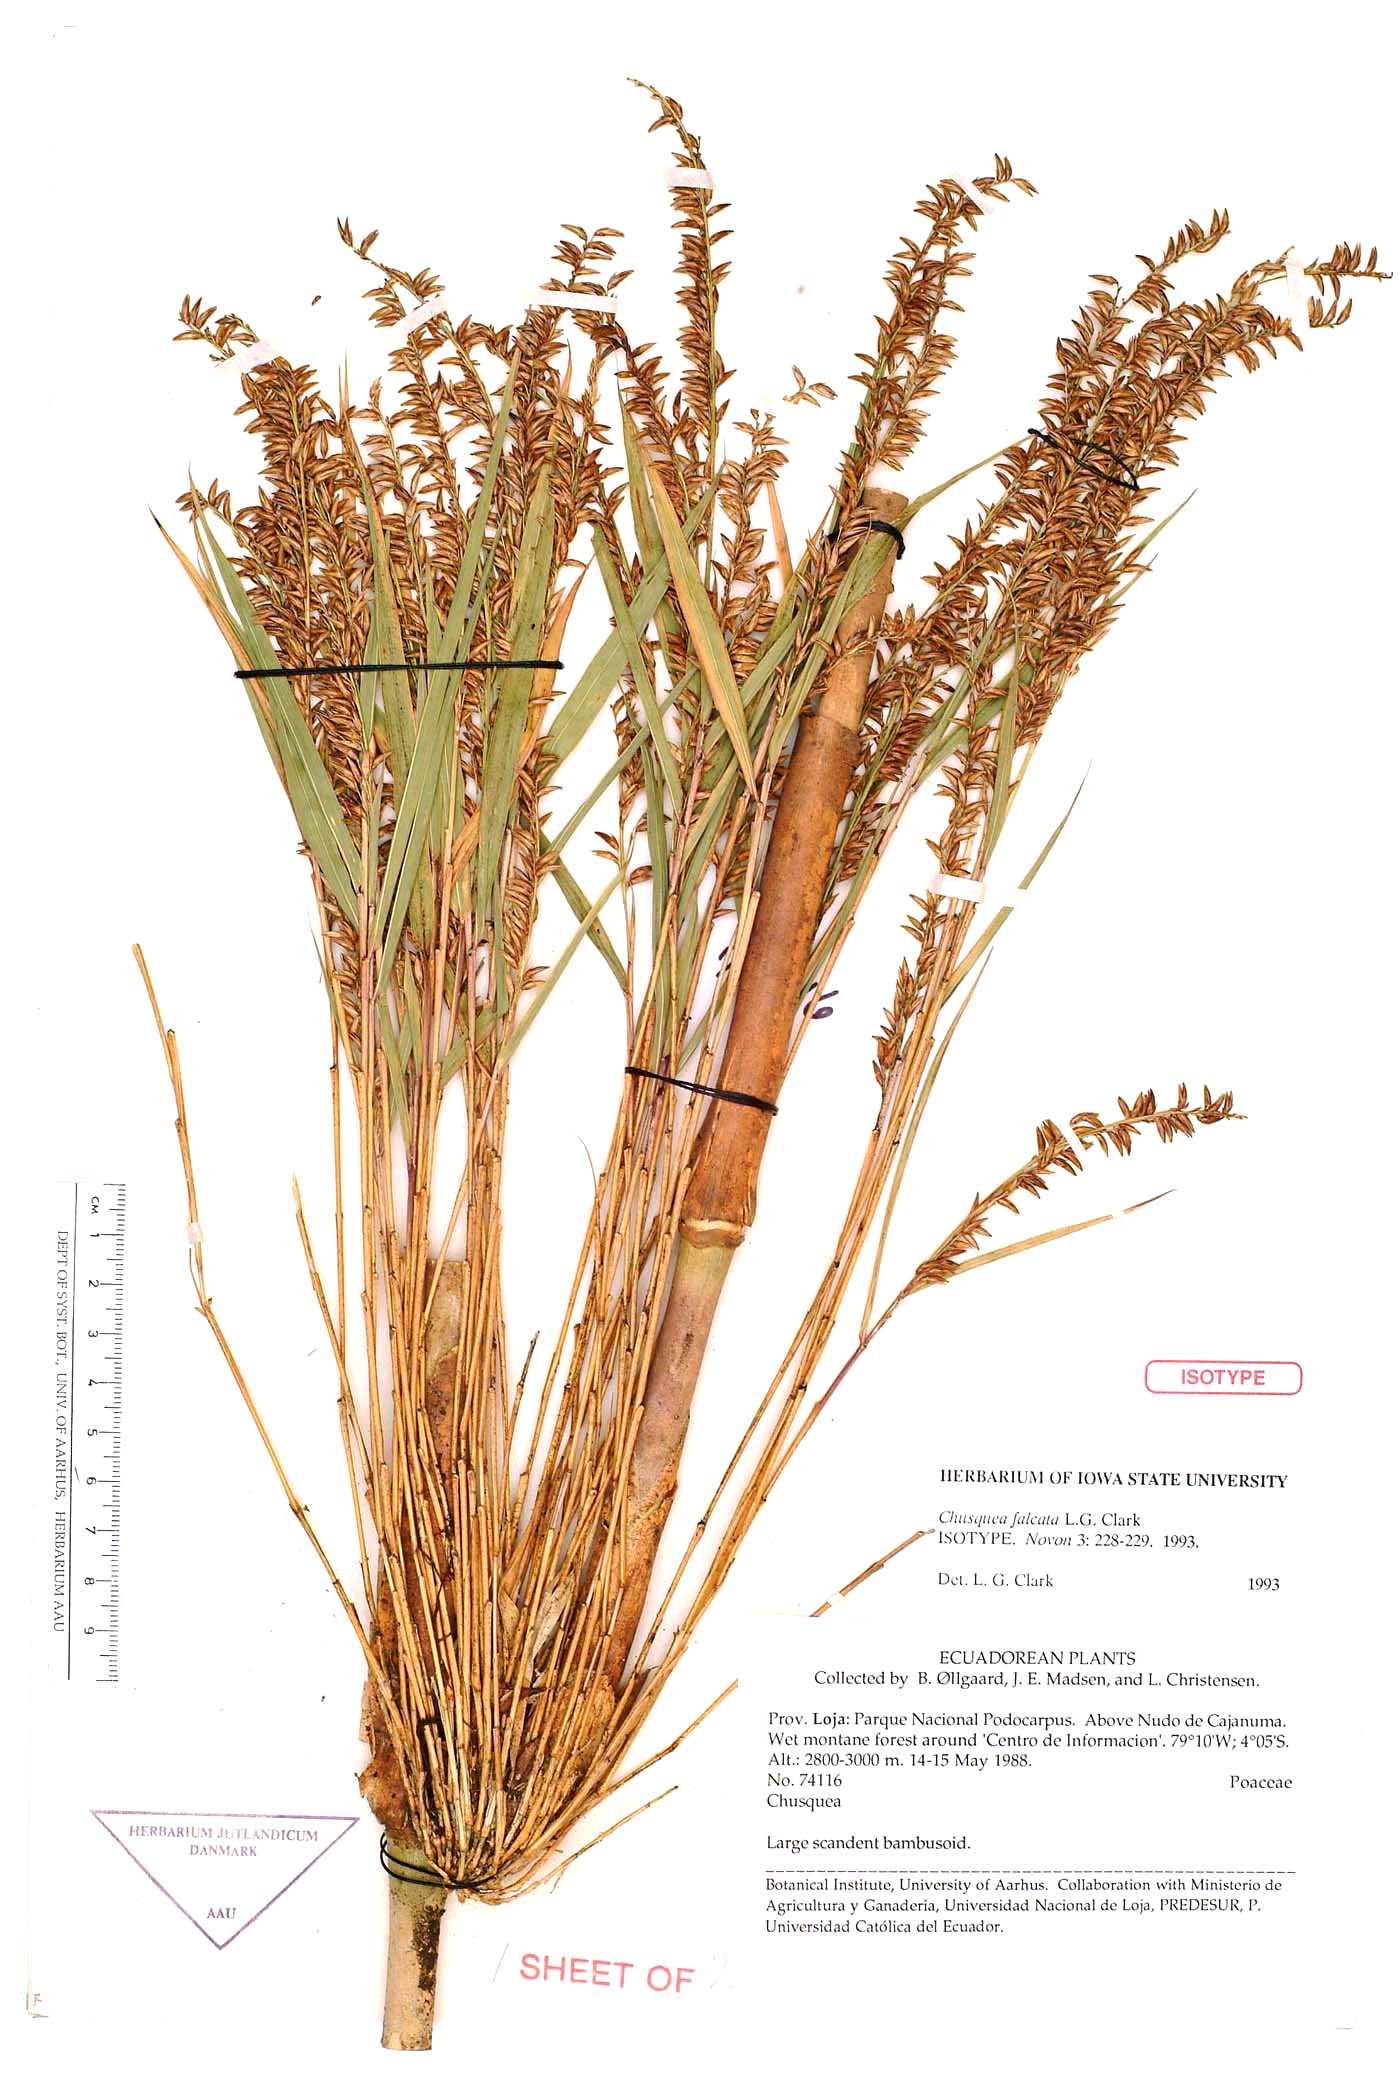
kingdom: Plantae
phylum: Tracheophyta
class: Liliopsida
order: Poales
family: Poaceae
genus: Chusquea
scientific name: Chusquea falcata
